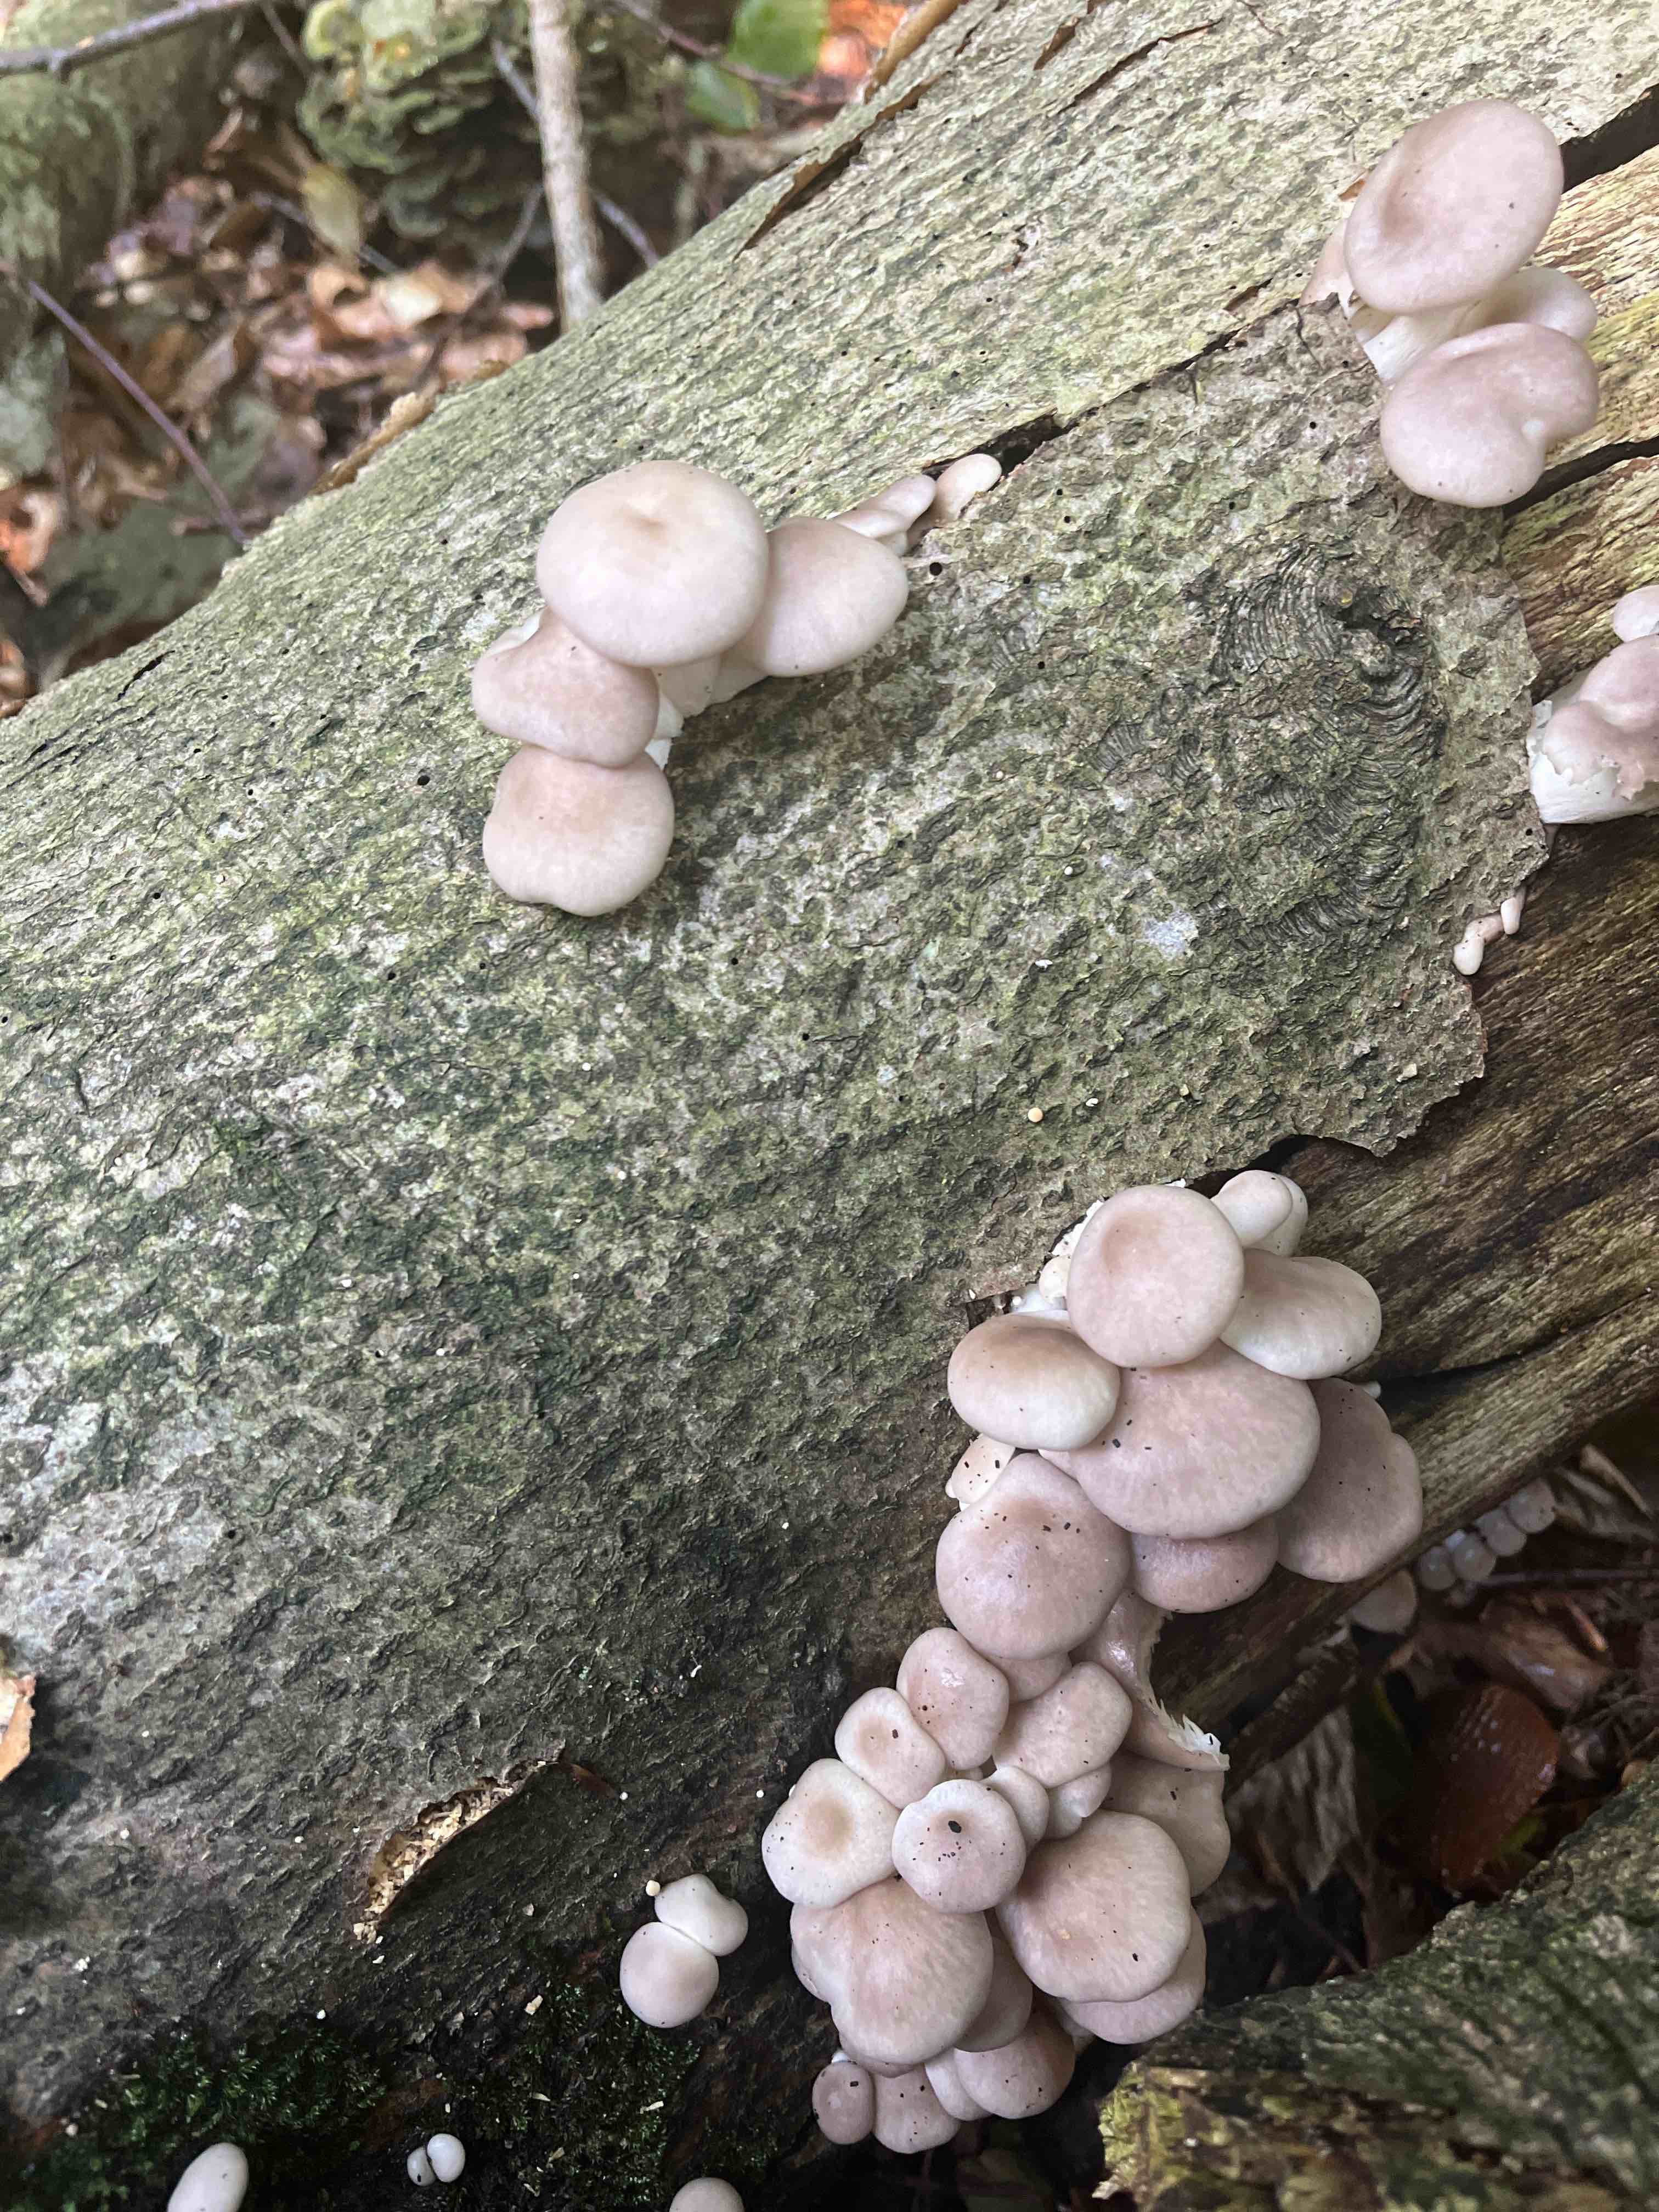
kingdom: Fungi
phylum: Basidiomycota
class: Agaricomycetes
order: Agaricales
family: Pleurotaceae
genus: Pleurotus
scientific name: Pleurotus pulmonarius
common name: sommer-østershat
